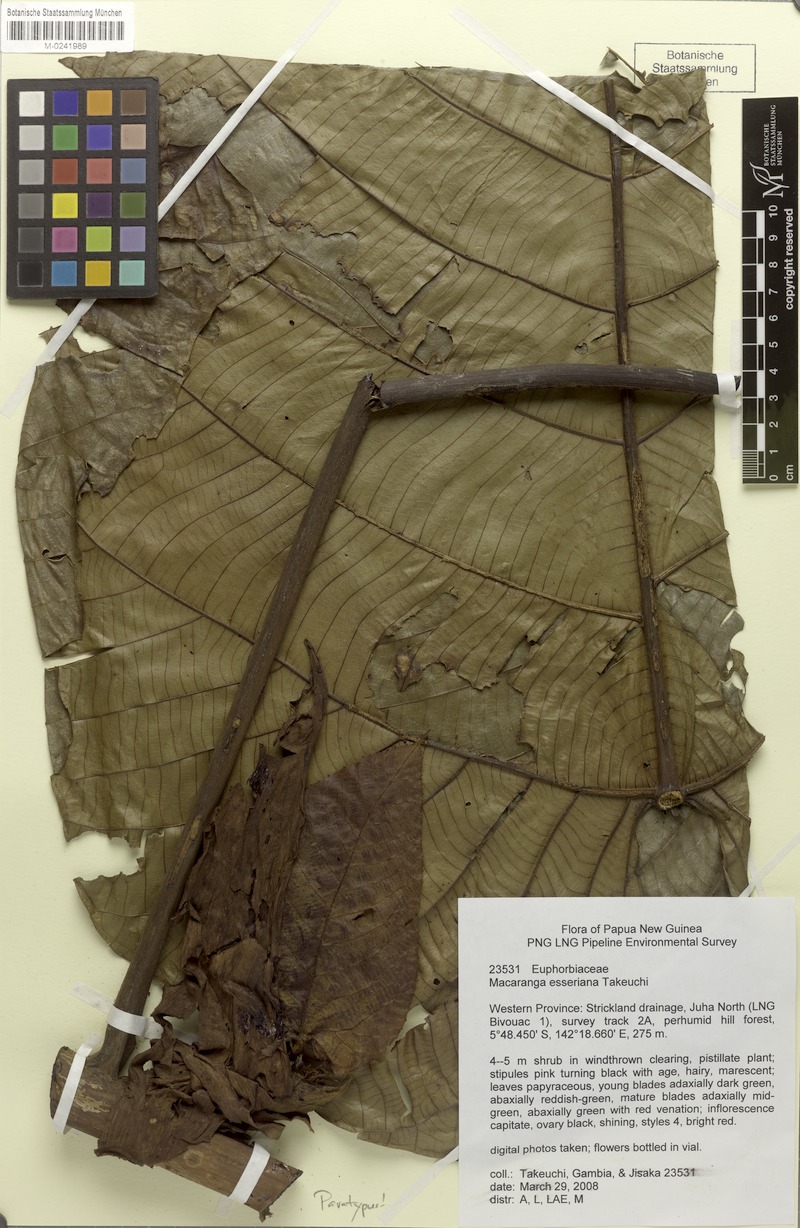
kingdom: Plantae
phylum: Tracheophyta
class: Magnoliopsida
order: Malpighiales
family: Euphorbiaceae
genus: Macaranga
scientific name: Macaranga esseriana
